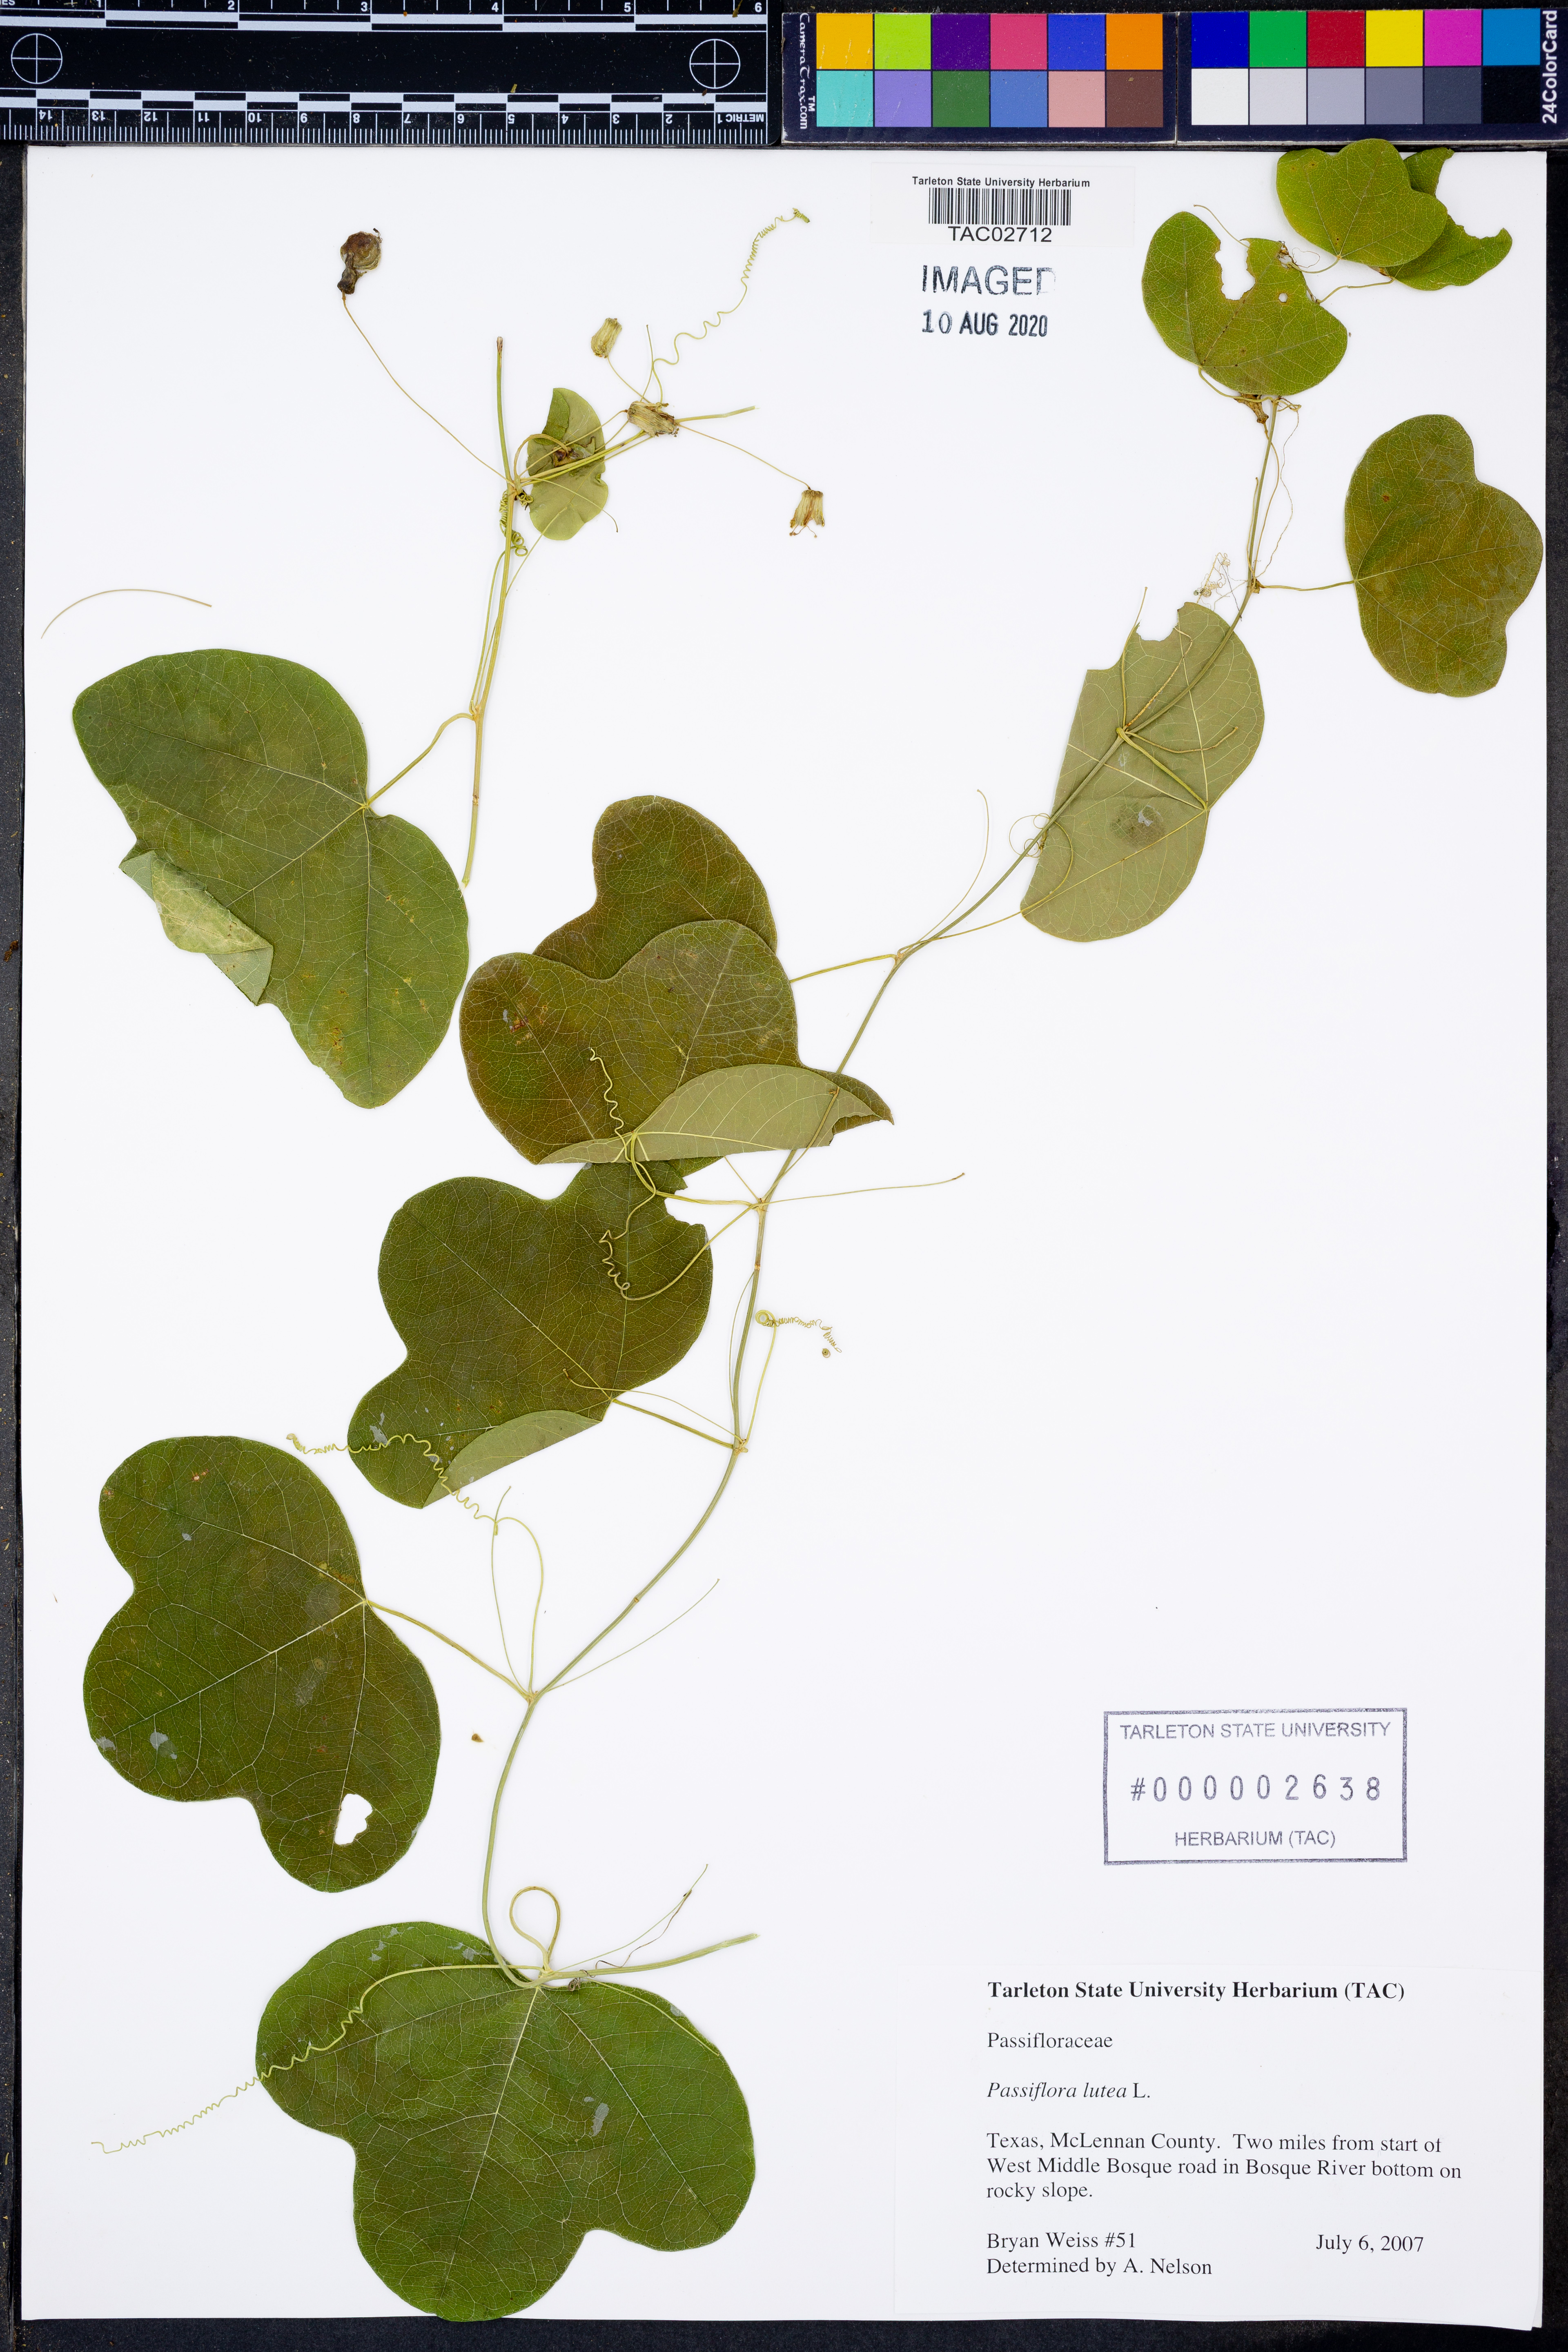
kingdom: Plantae
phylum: Tracheophyta
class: Magnoliopsida
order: Malpighiales
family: Passifloraceae
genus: Passiflora
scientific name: Passiflora lutea
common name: Yellow passionflower
